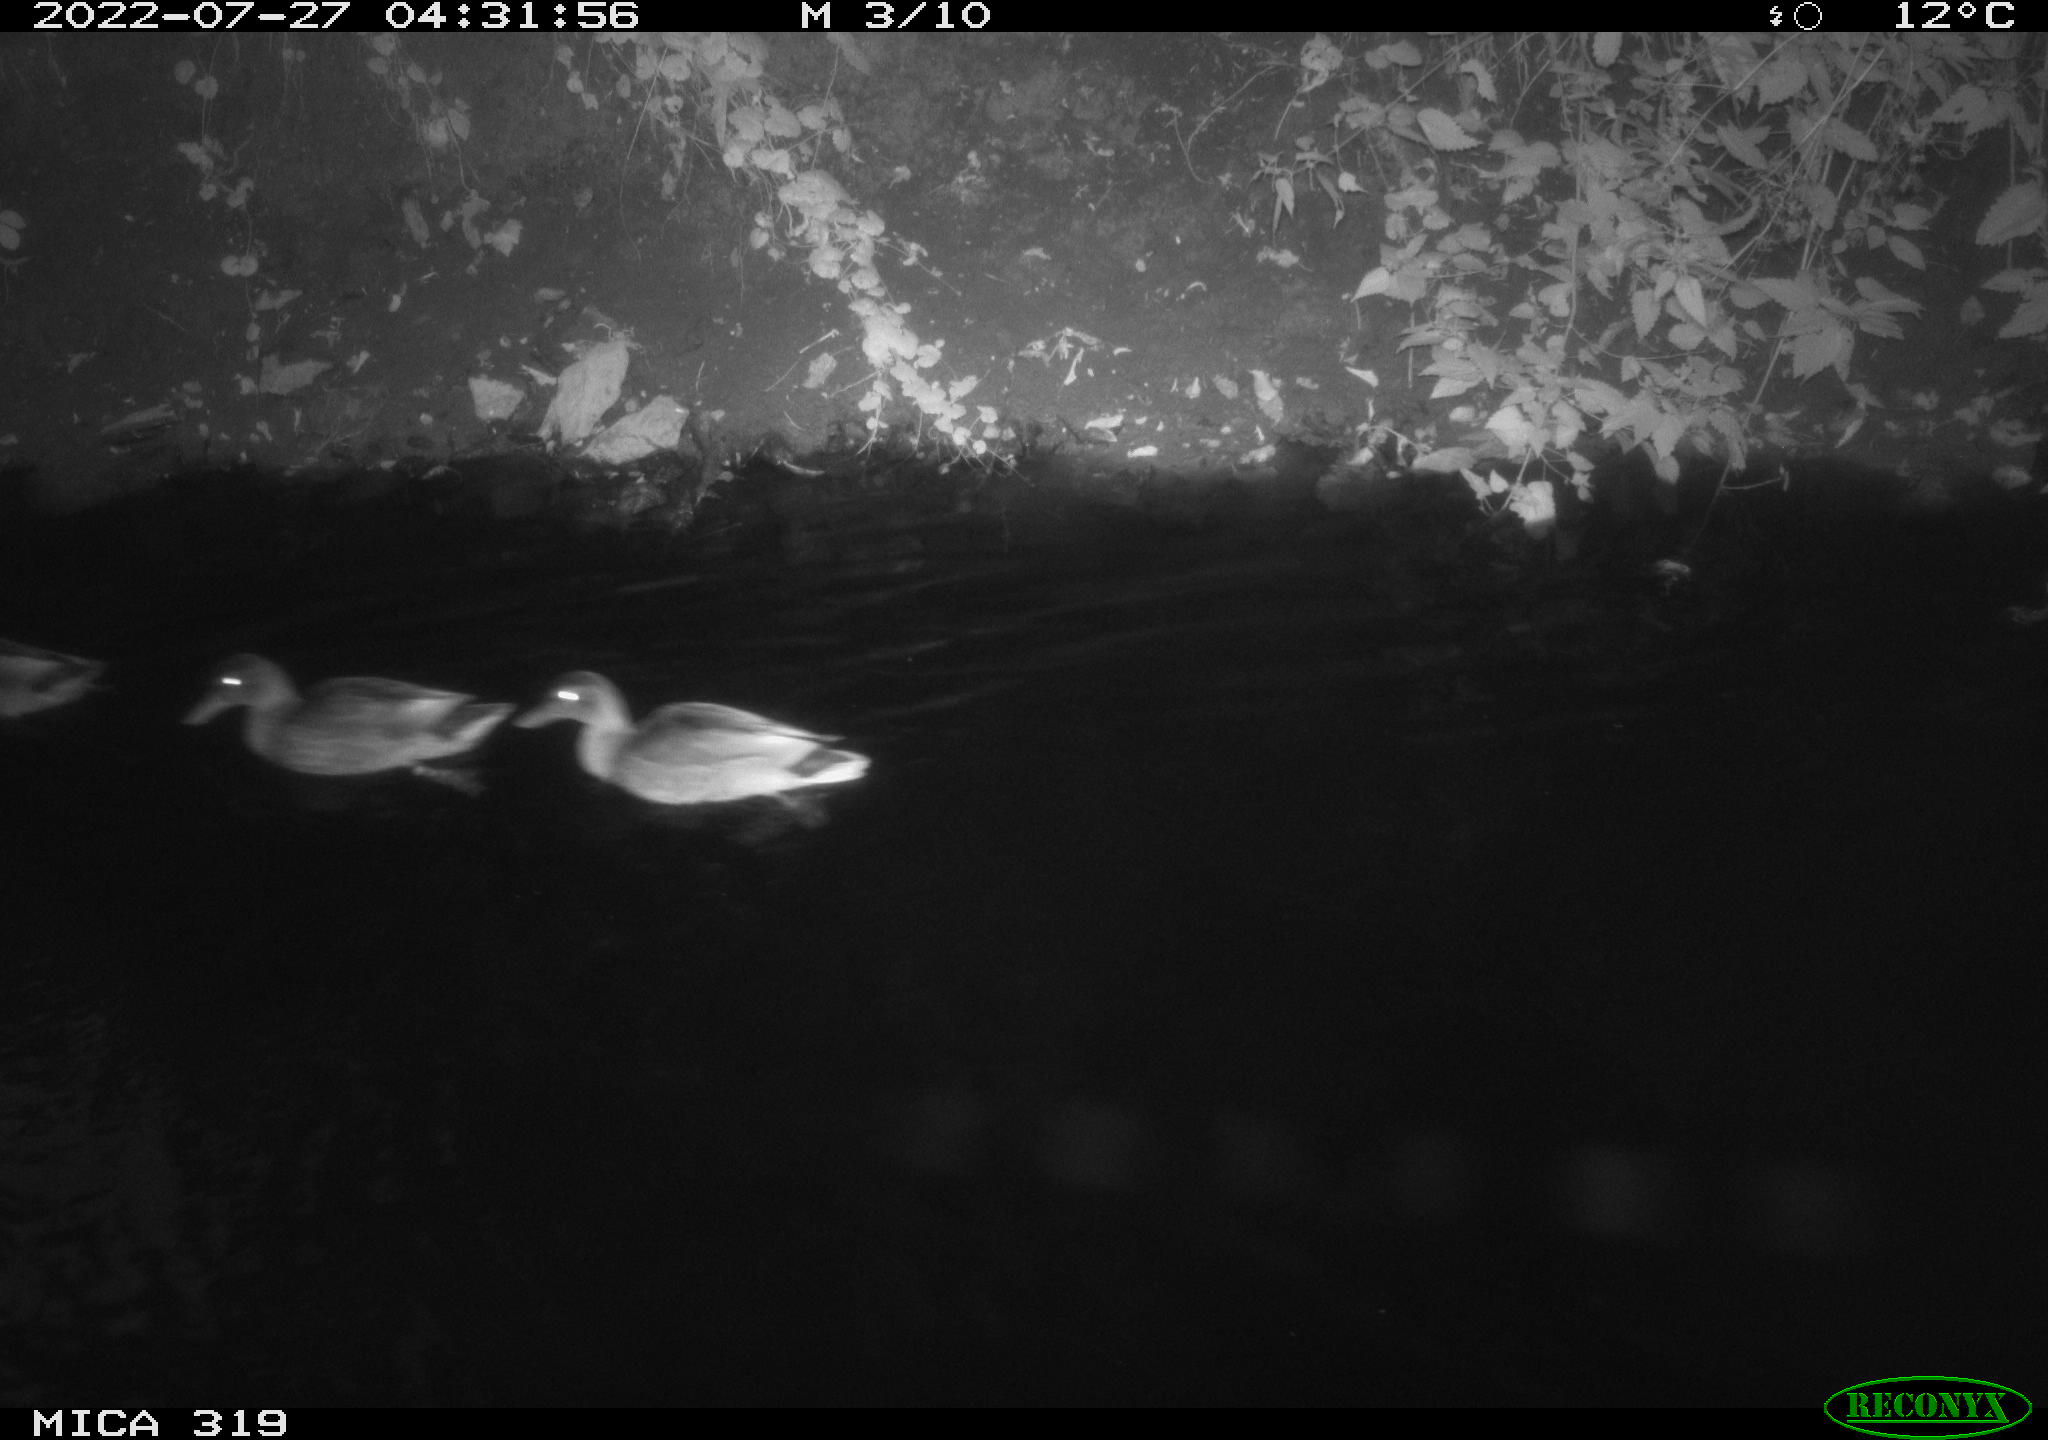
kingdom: Animalia
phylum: Chordata
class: Aves
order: Anseriformes
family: Anatidae
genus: Anas
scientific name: Anas
